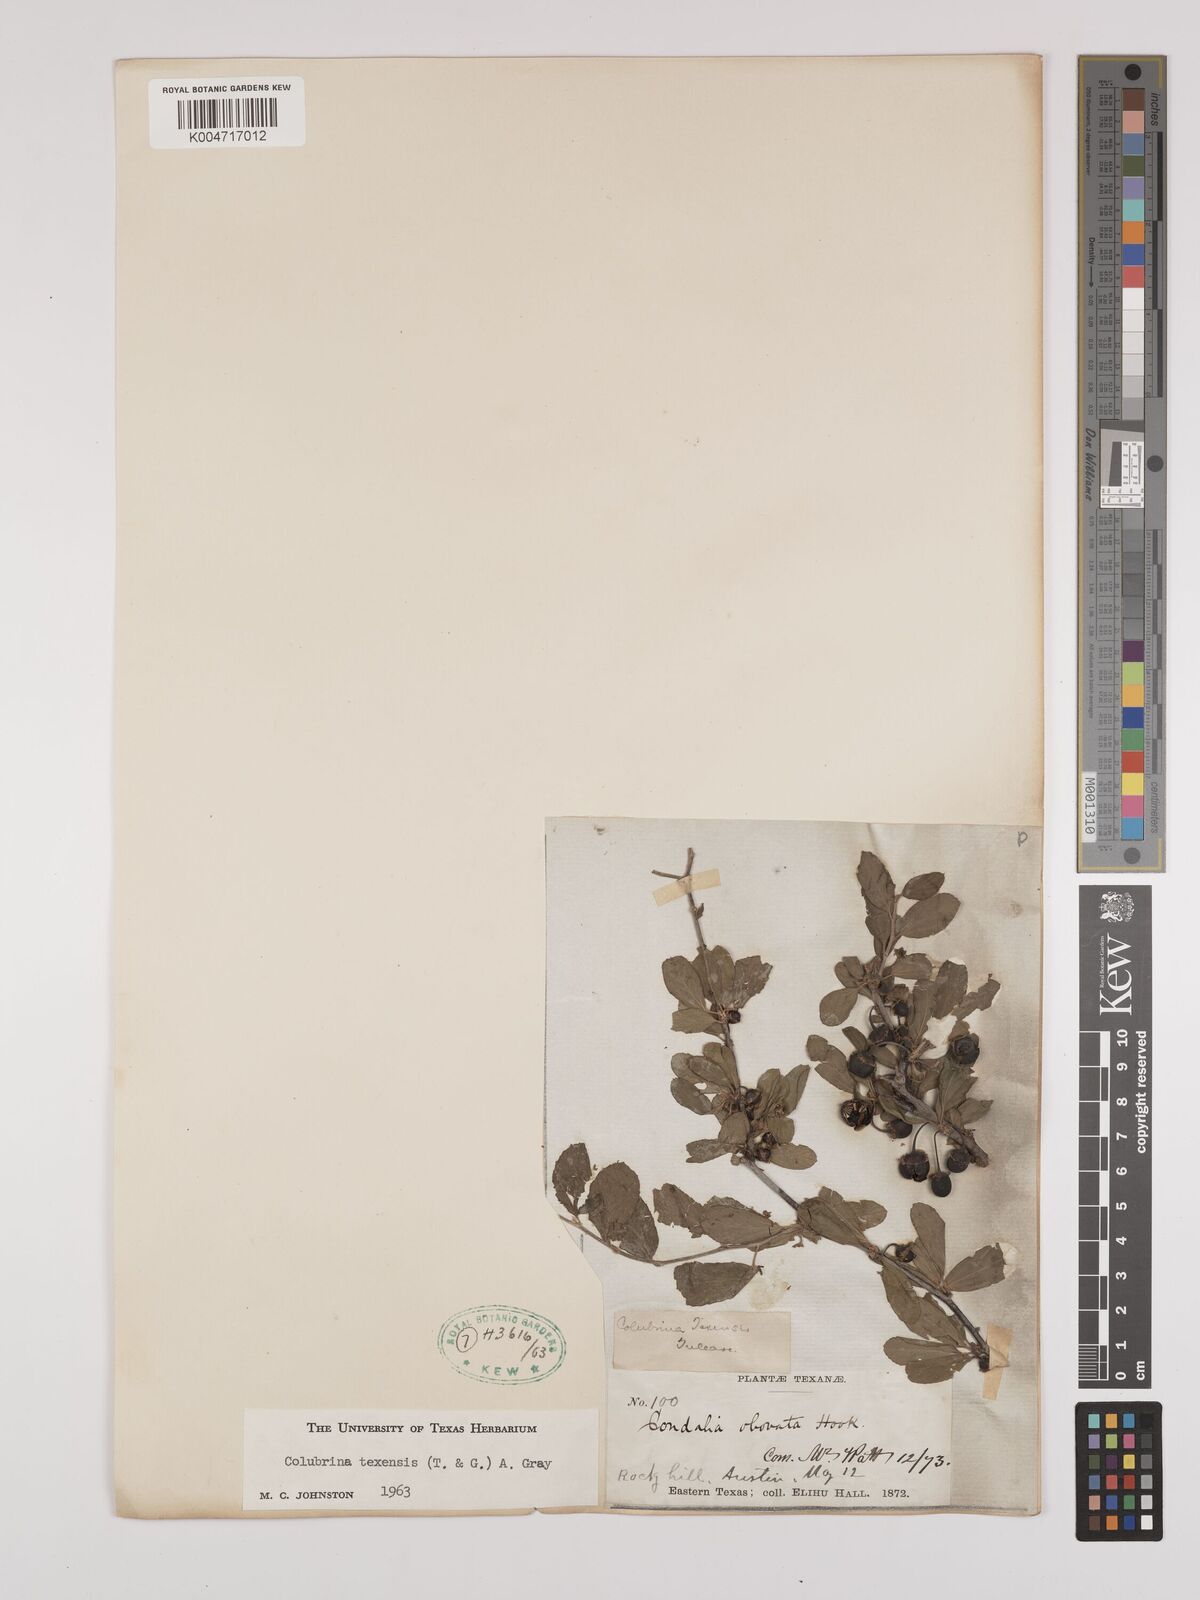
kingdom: Plantae
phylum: Tracheophyta
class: Magnoliopsida
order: Rosales
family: Rhamnaceae
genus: Colubrina
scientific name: Colubrina texensis
